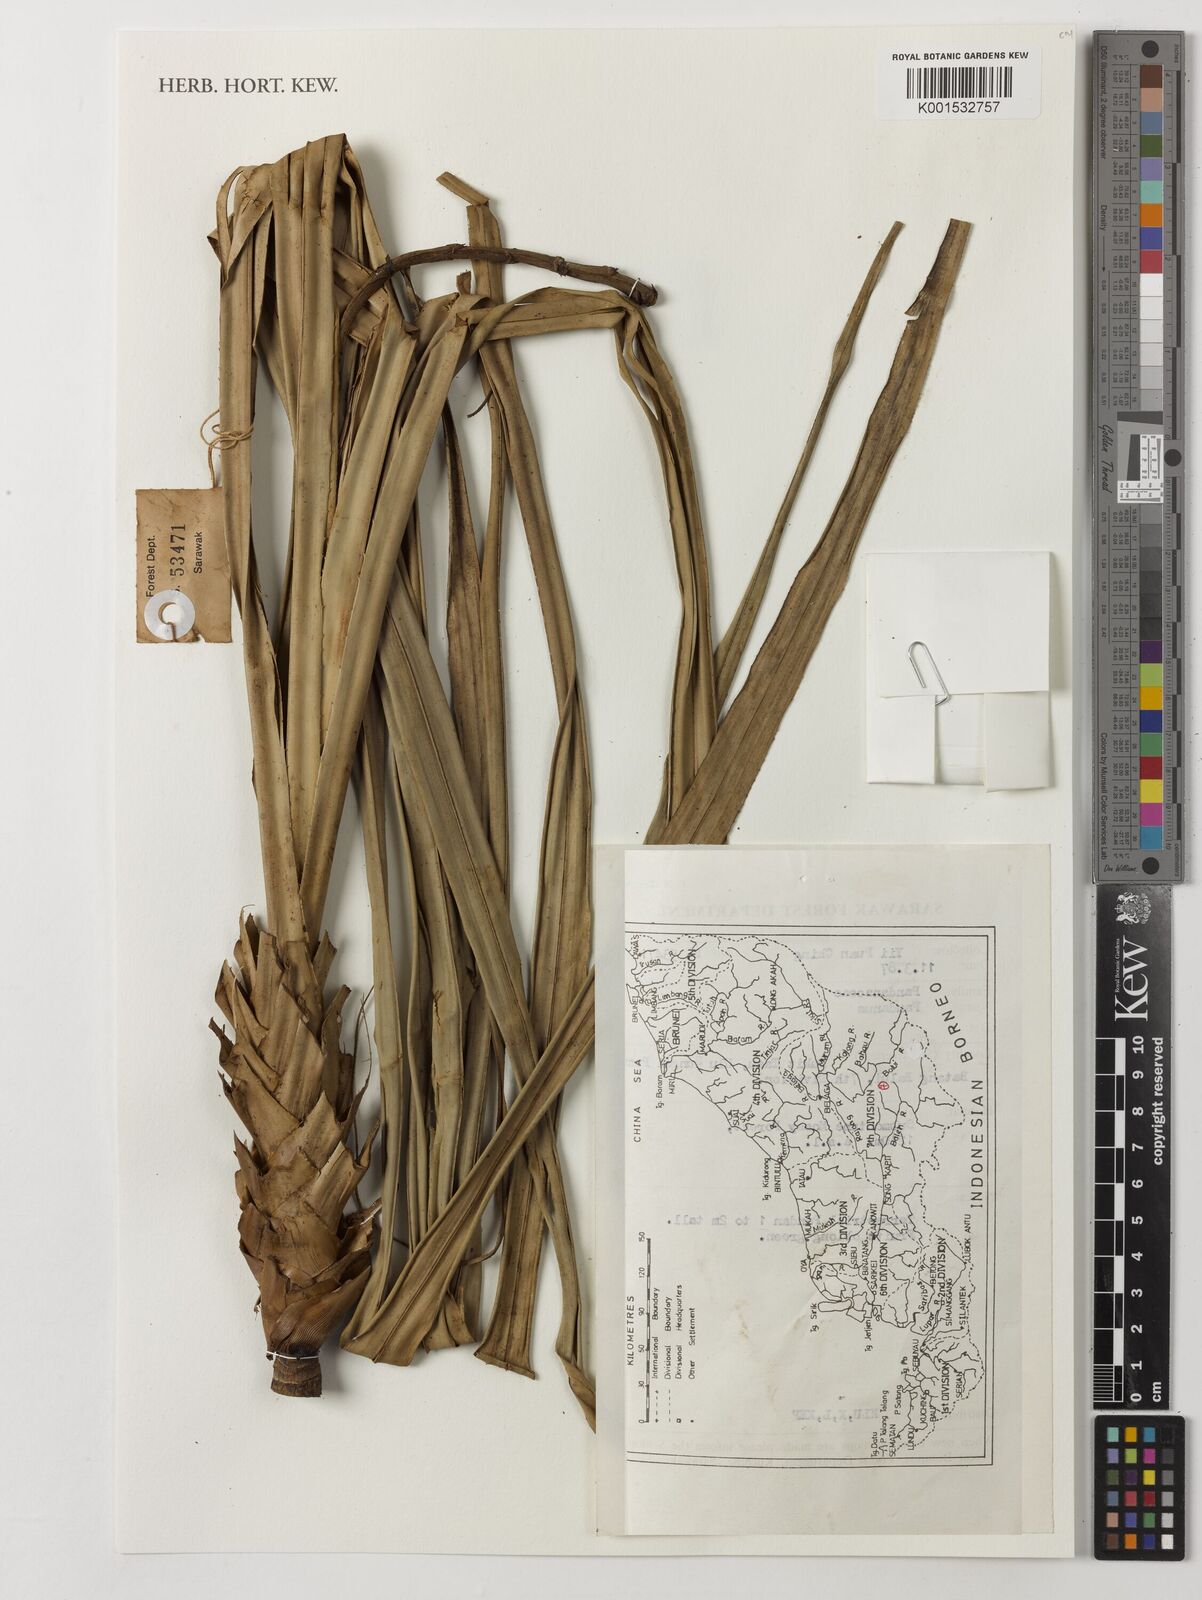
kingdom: Plantae
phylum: Tracheophyta
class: Liliopsida
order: Pandanales
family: Pandanaceae
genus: Pandanus
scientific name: Pandanus
